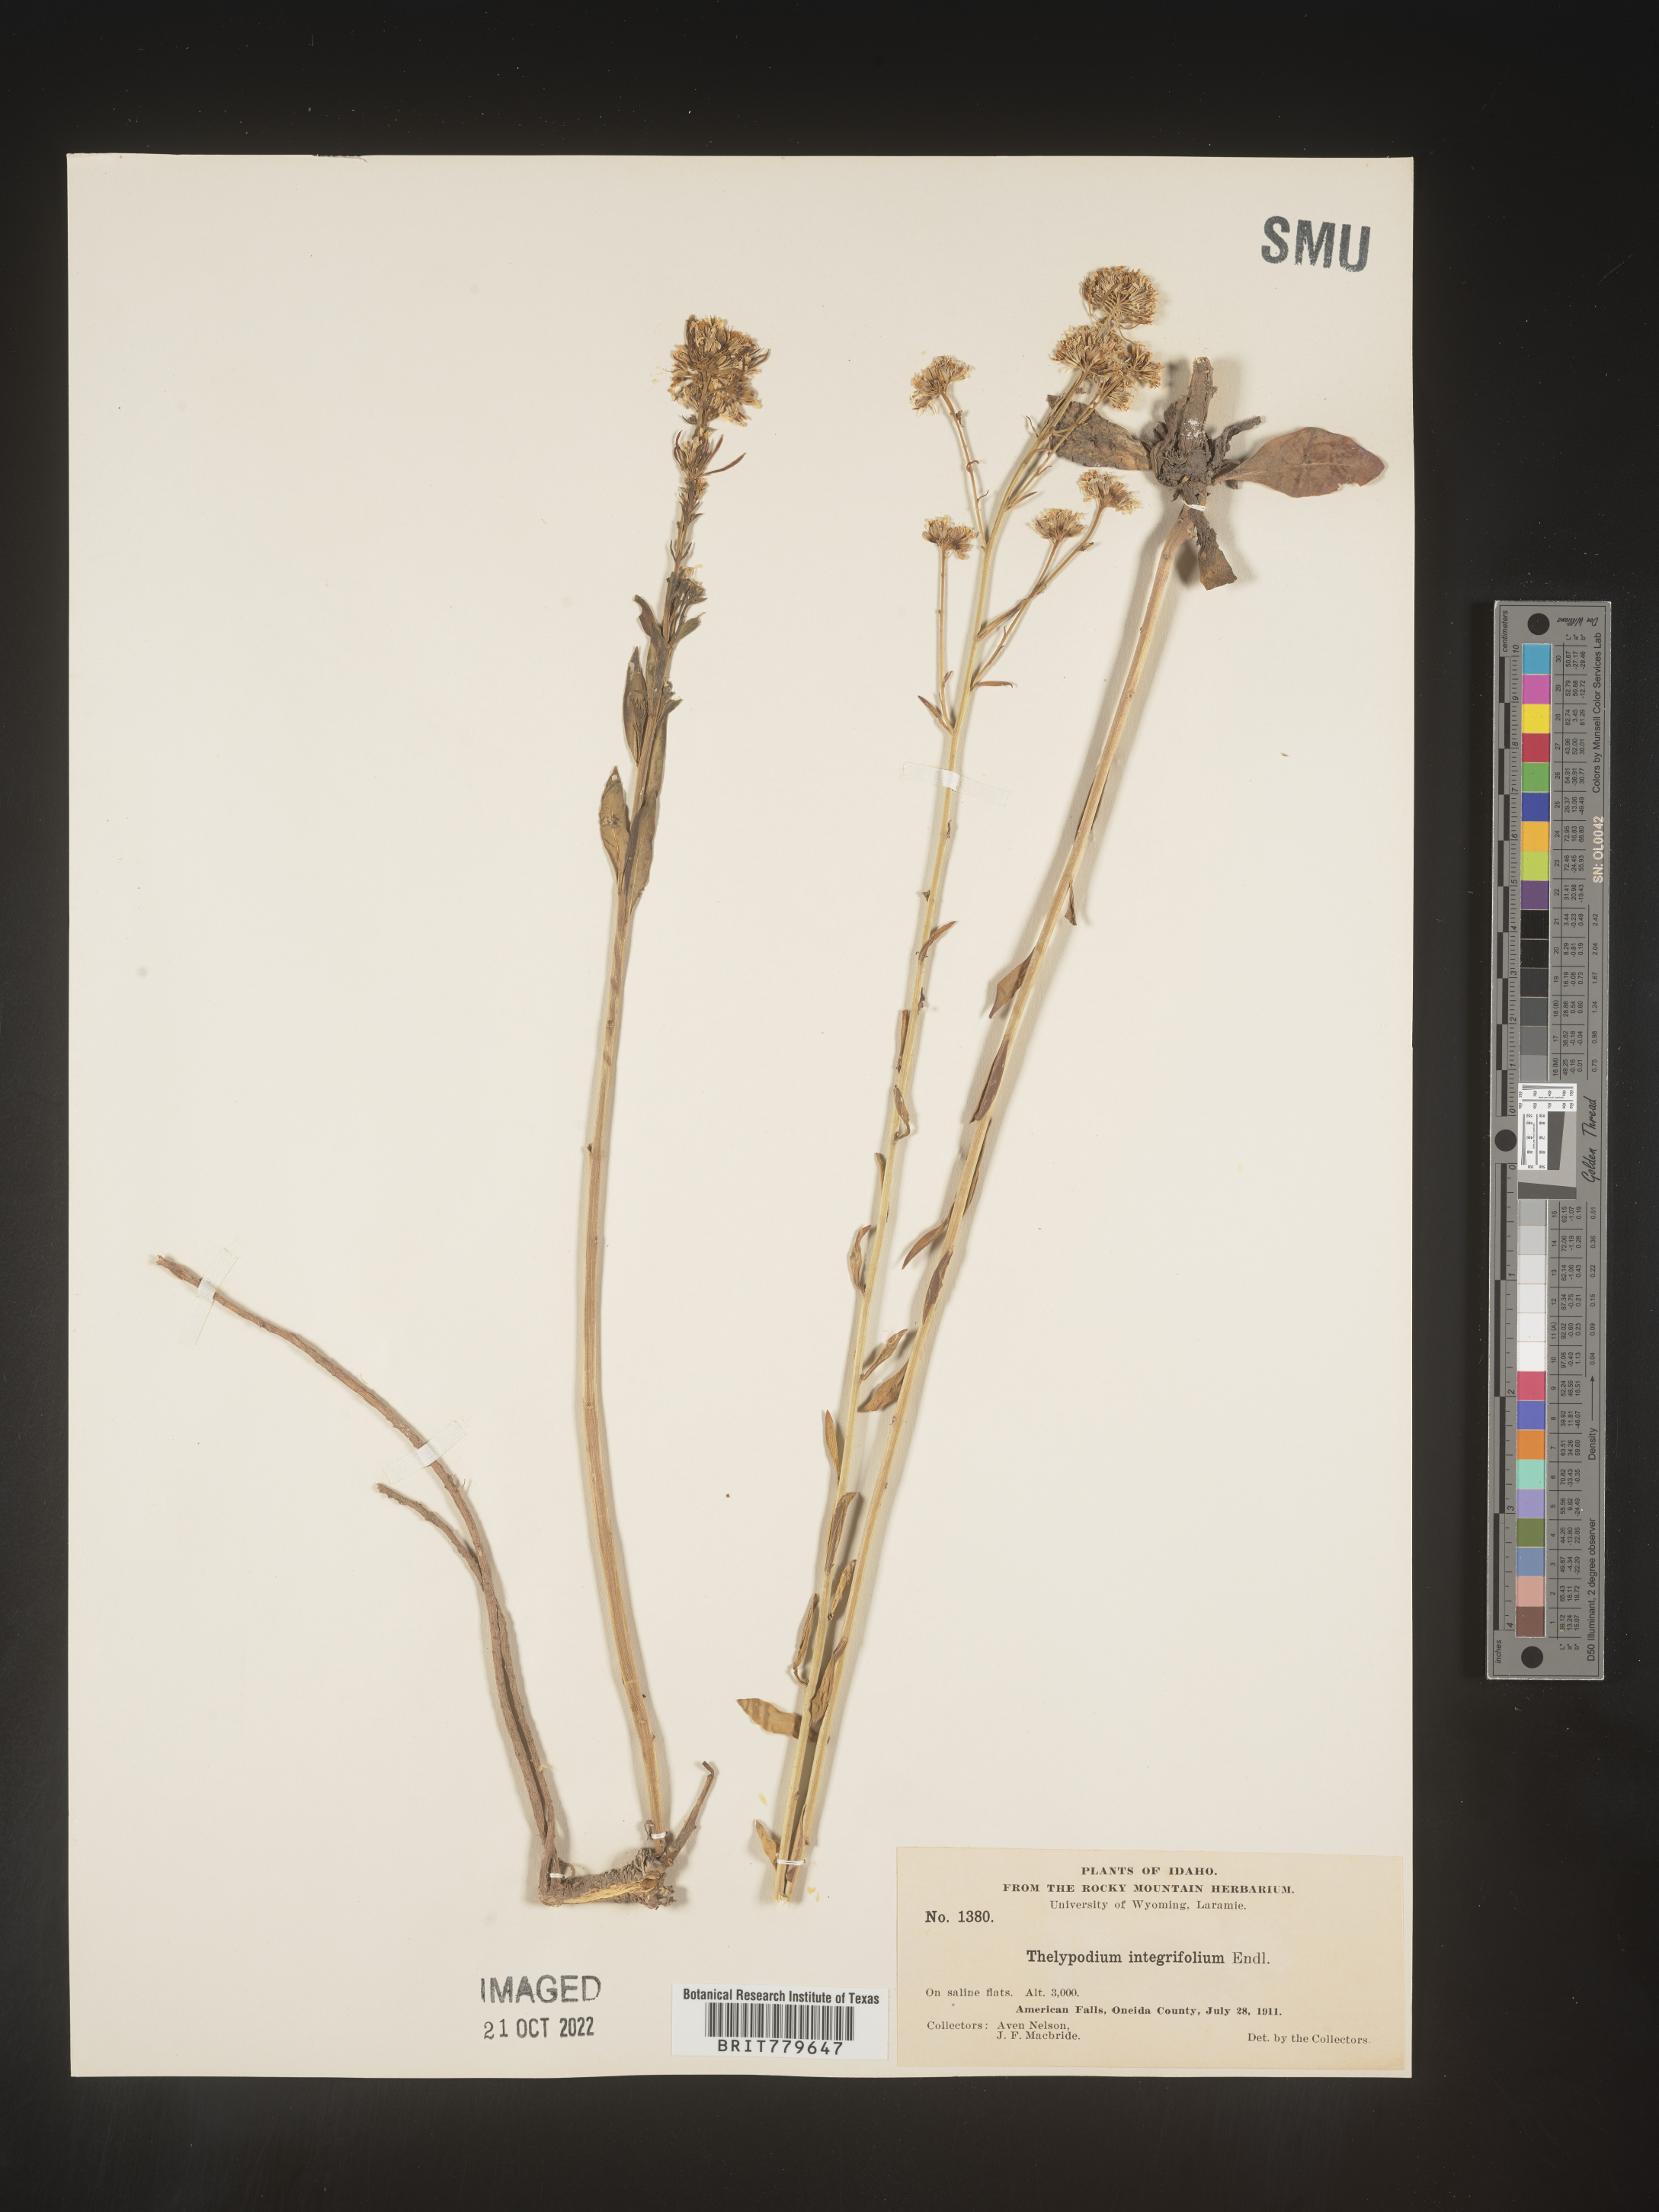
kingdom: Plantae
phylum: Tracheophyta
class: Magnoliopsida
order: Brassicales
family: Brassicaceae
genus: Thelypodium
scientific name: Thelypodium
